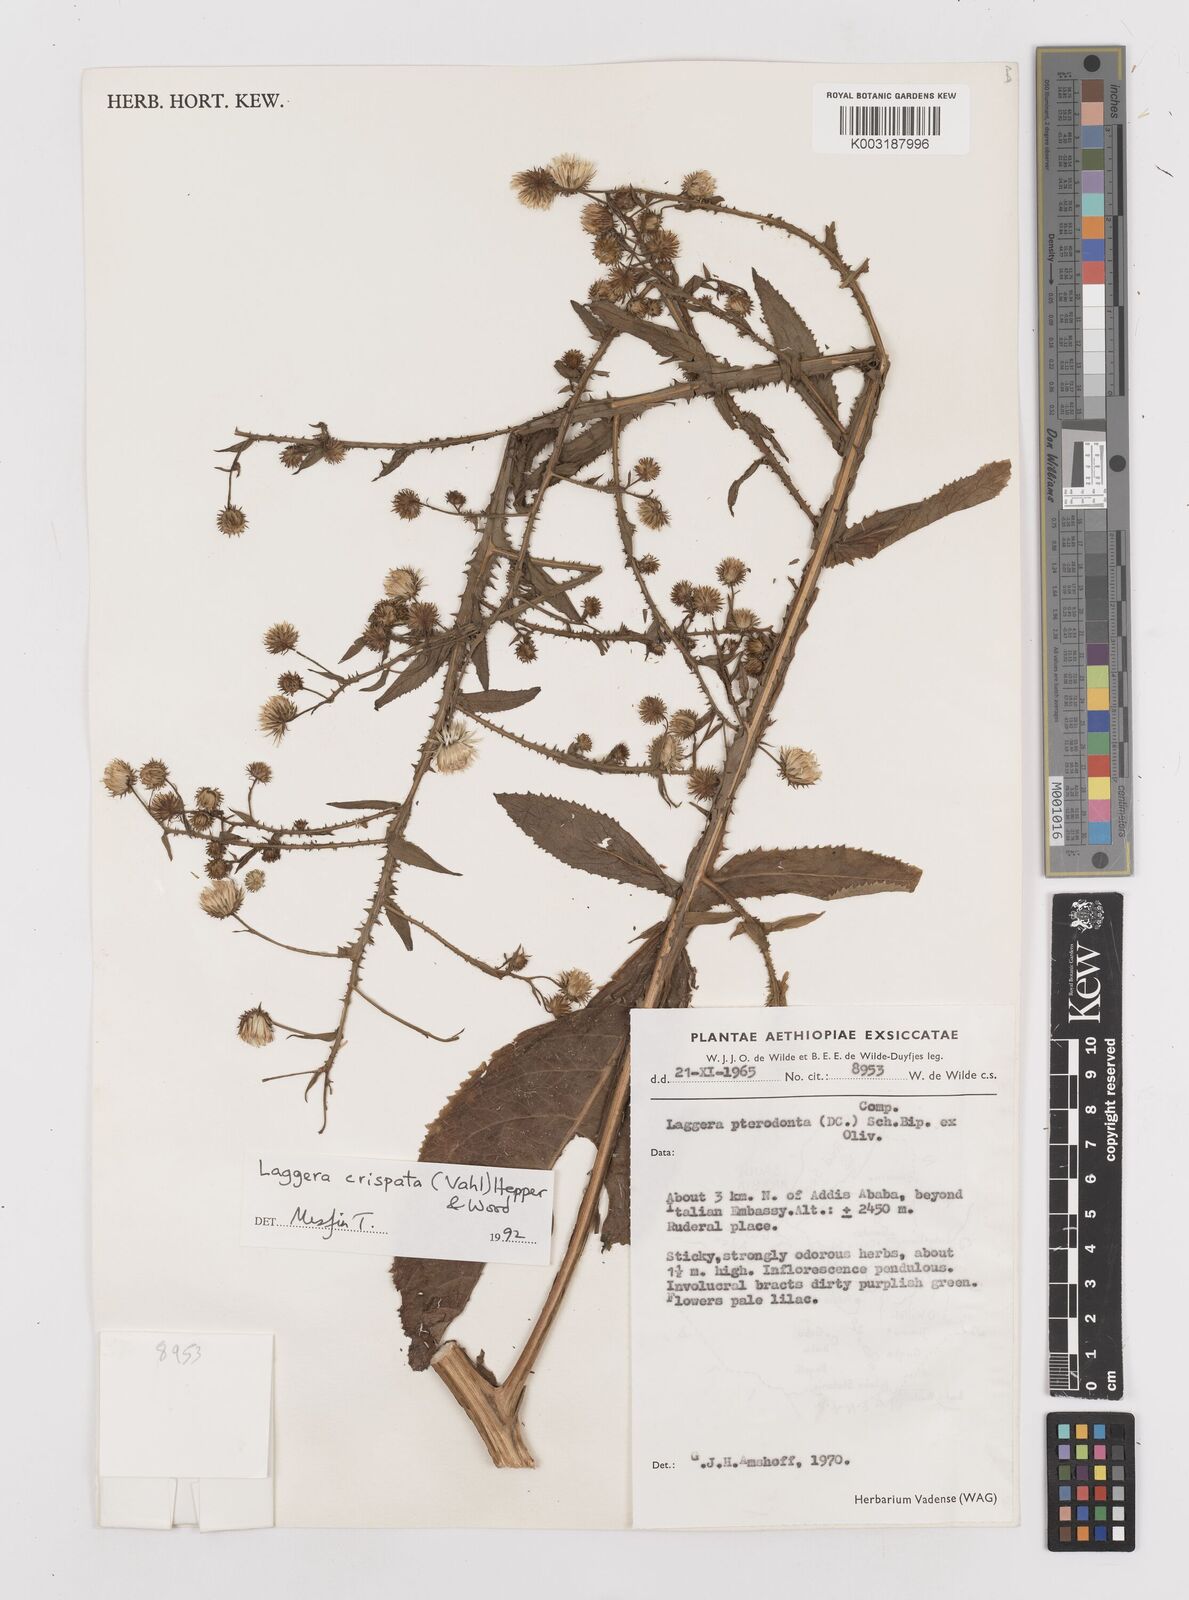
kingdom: Plantae
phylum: Tracheophyta
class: Magnoliopsida
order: Asterales
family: Asteraceae
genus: Laggera
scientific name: Laggera crispata
